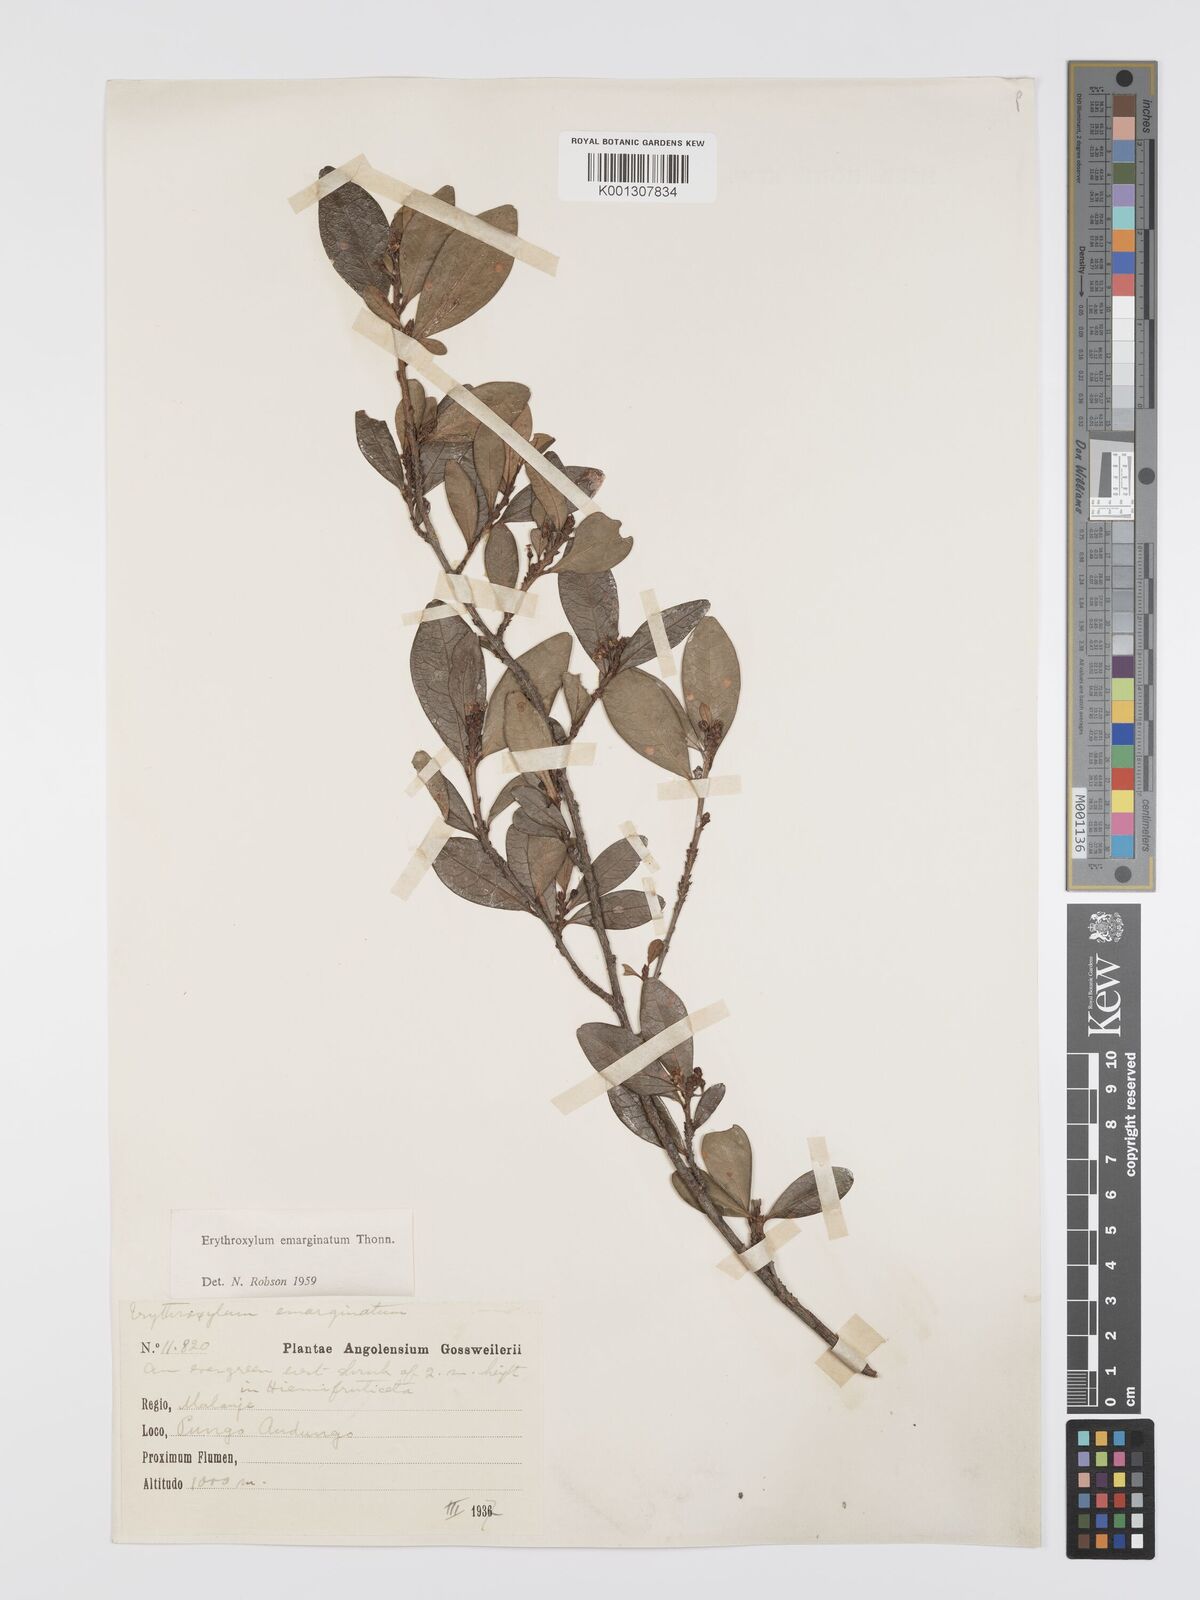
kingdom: Plantae
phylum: Tracheophyta
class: Magnoliopsida
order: Malpighiales
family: Erythroxylaceae
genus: Erythroxylum
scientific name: Erythroxylum emarginatum
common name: African coca-tree
